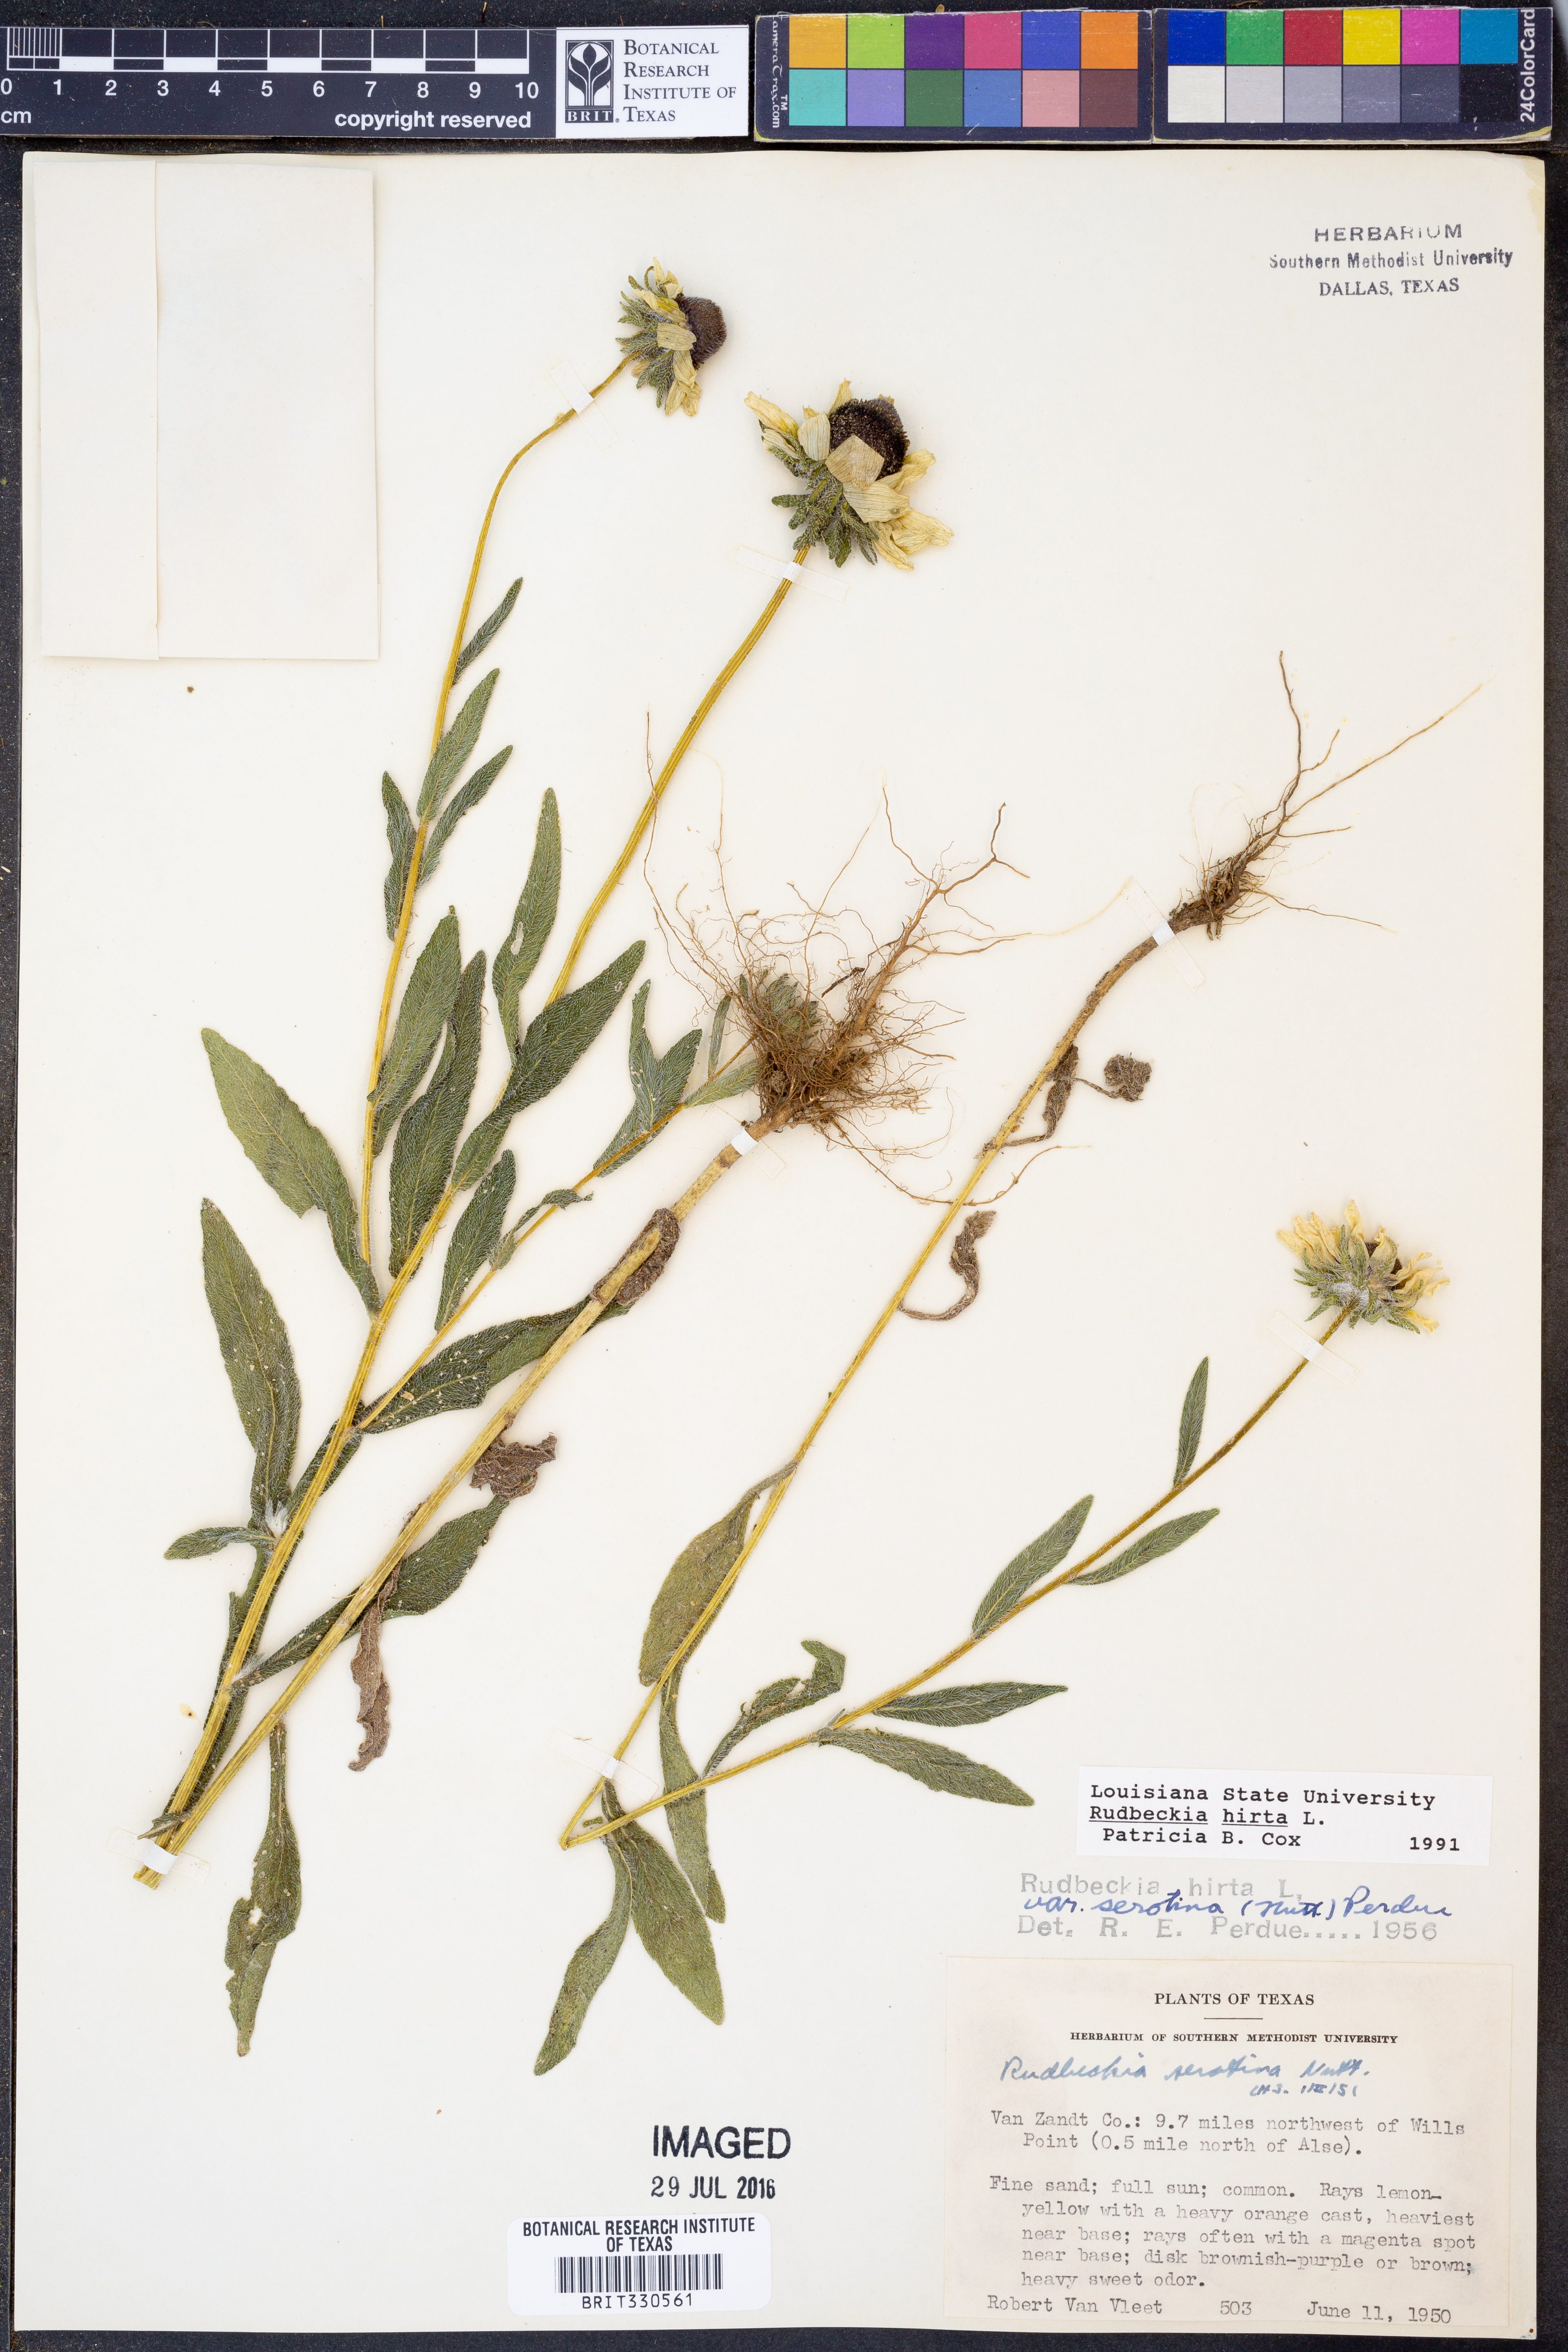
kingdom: Plantae
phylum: Tracheophyta
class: Magnoliopsida
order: Asterales
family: Asteraceae
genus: Rudbeckia
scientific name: Rudbeckia hirta
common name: Black-eyed-susan
